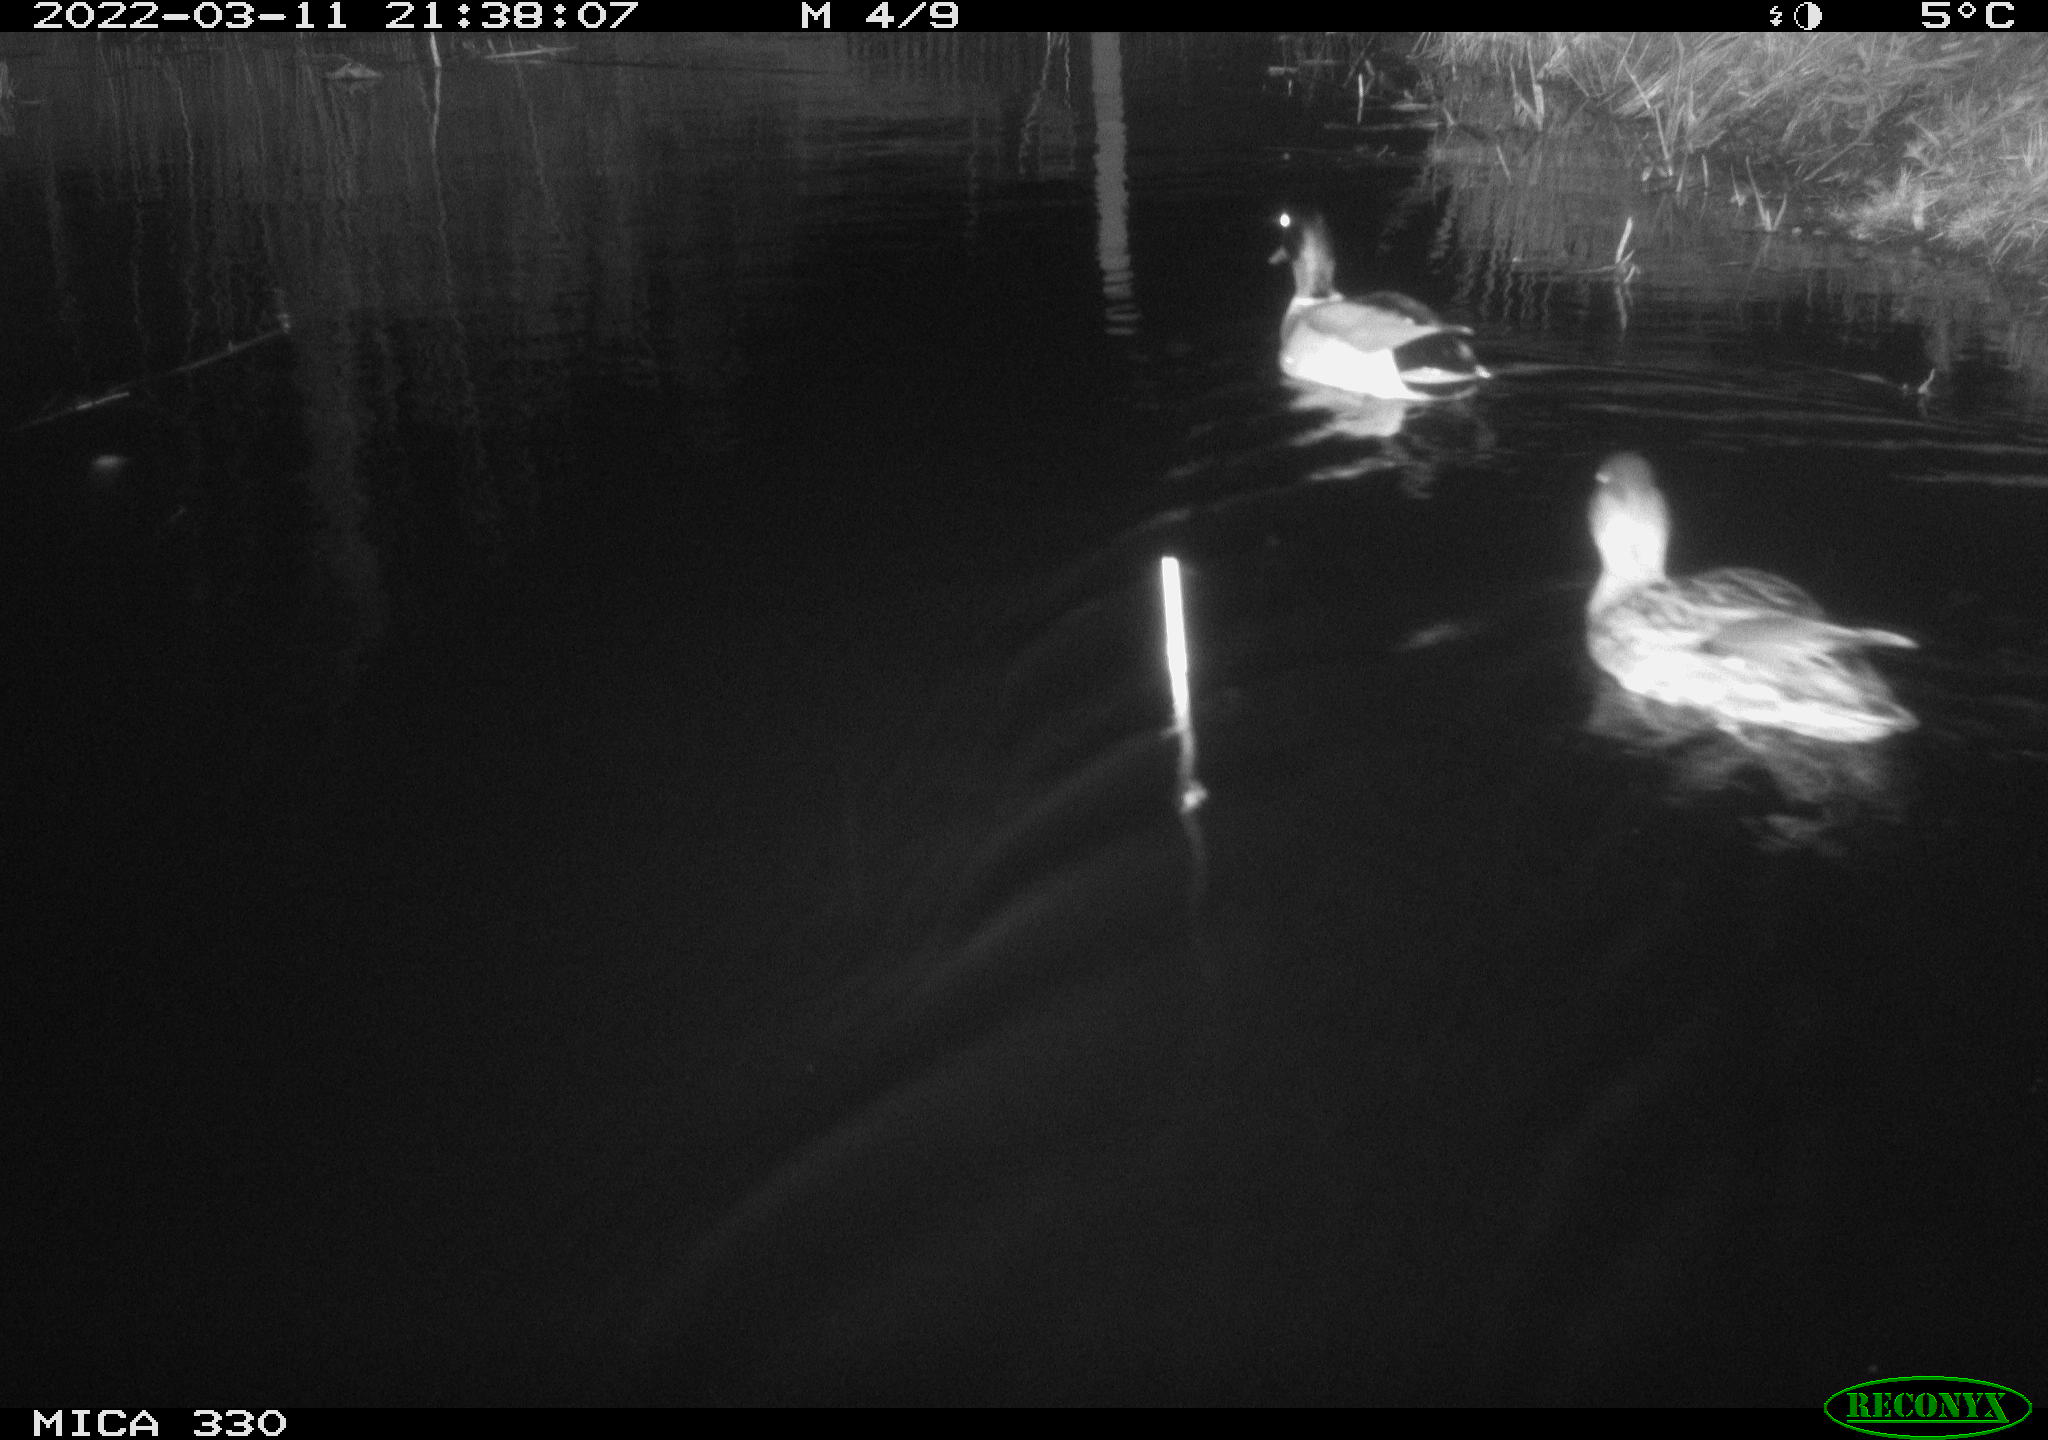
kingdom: Animalia
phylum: Chordata
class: Aves
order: Anseriformes
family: Anatidae
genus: Anas
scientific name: Anas platyrhynchos
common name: Mallard
